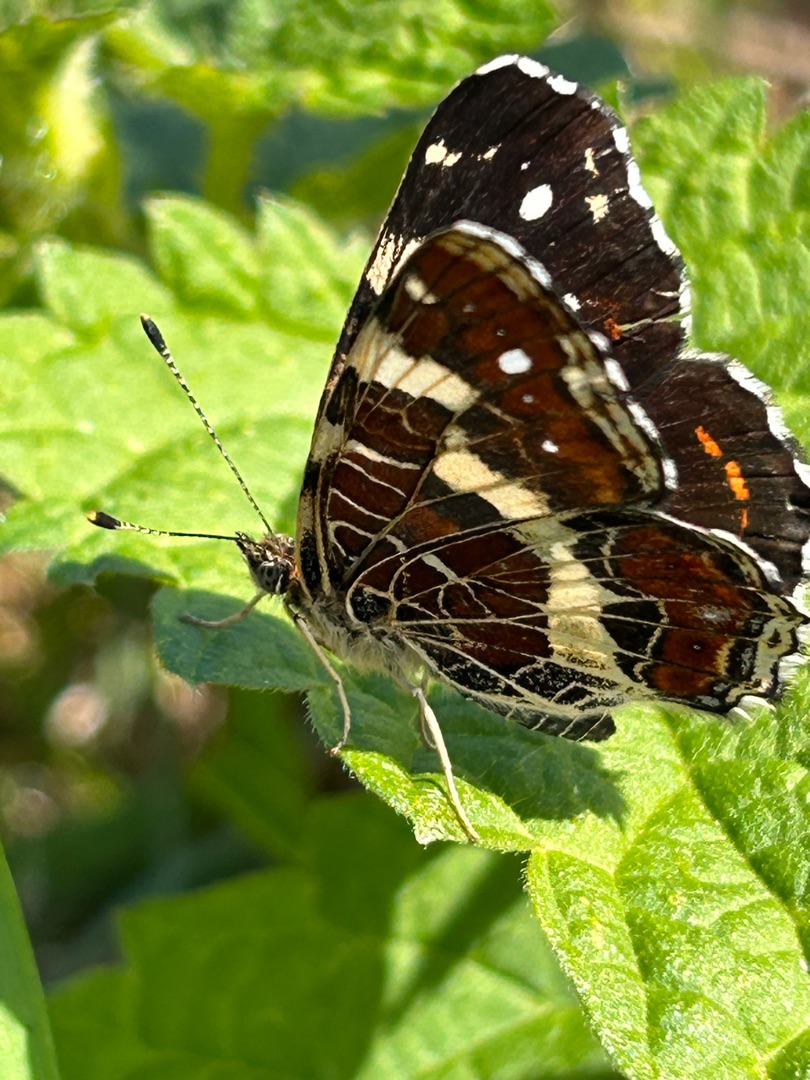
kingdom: Animalia
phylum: Arthropoda
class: Insecta
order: Lepidoptera
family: Nymphalidae
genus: Araschnia
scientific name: Araschnia levana
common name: Nældesommerfugl
